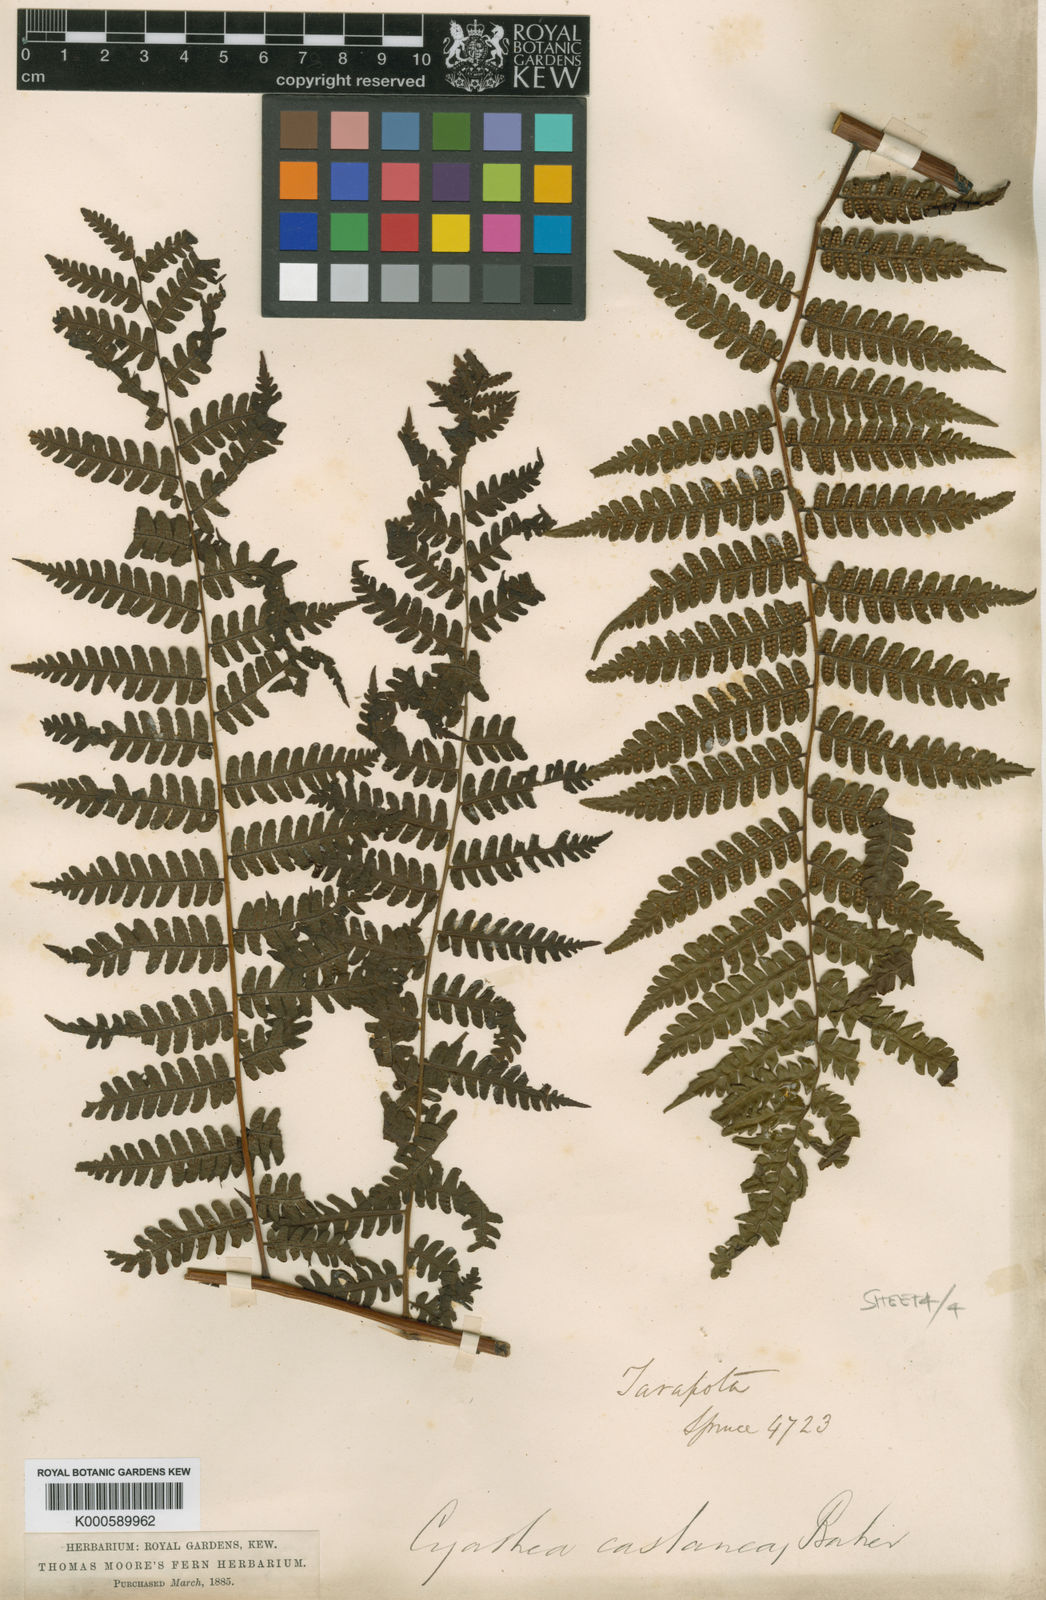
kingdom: Plantae
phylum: Tracheophyta
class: Polypodiopsida
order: Cyatheales
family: Cyatheaceae
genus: Cyathea
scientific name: Cyathea lechleri
